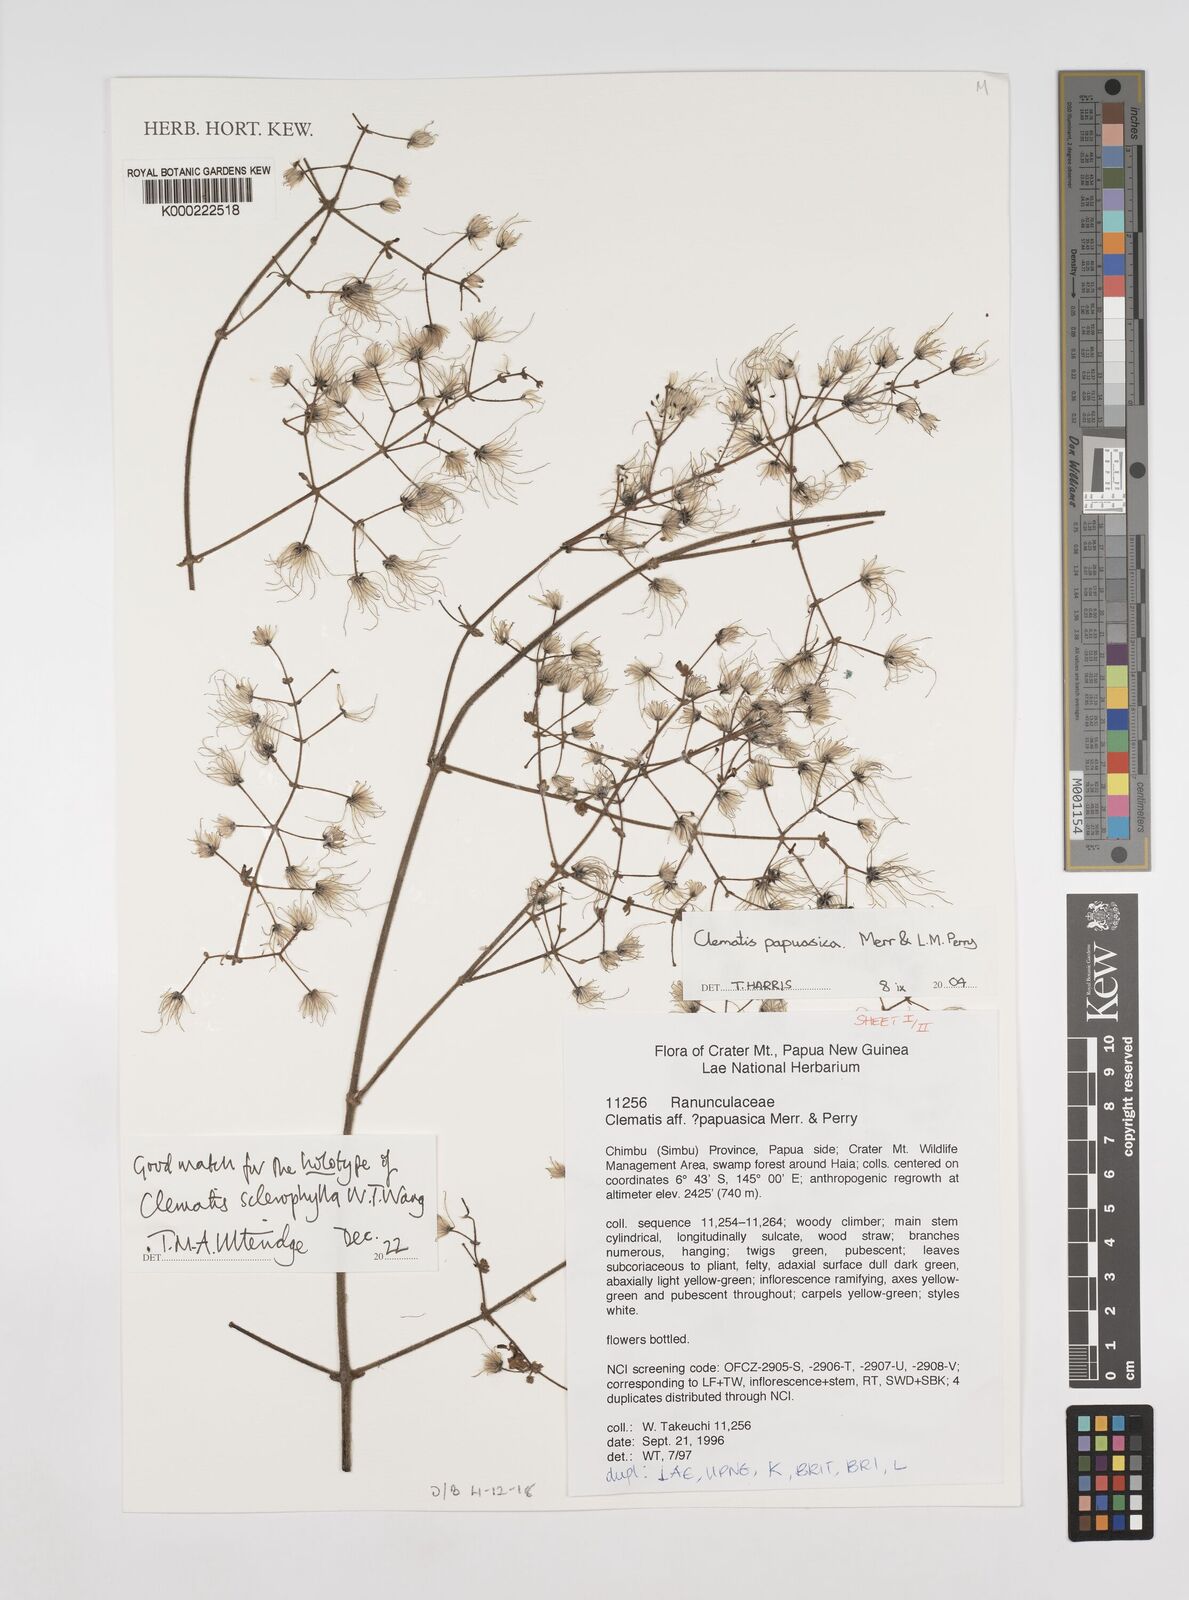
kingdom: Plantae
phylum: Tracheophyta
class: Magnoliopsida
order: Ranunculales
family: Ranunculaceae
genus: Clematis
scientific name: Clematis papuasica
